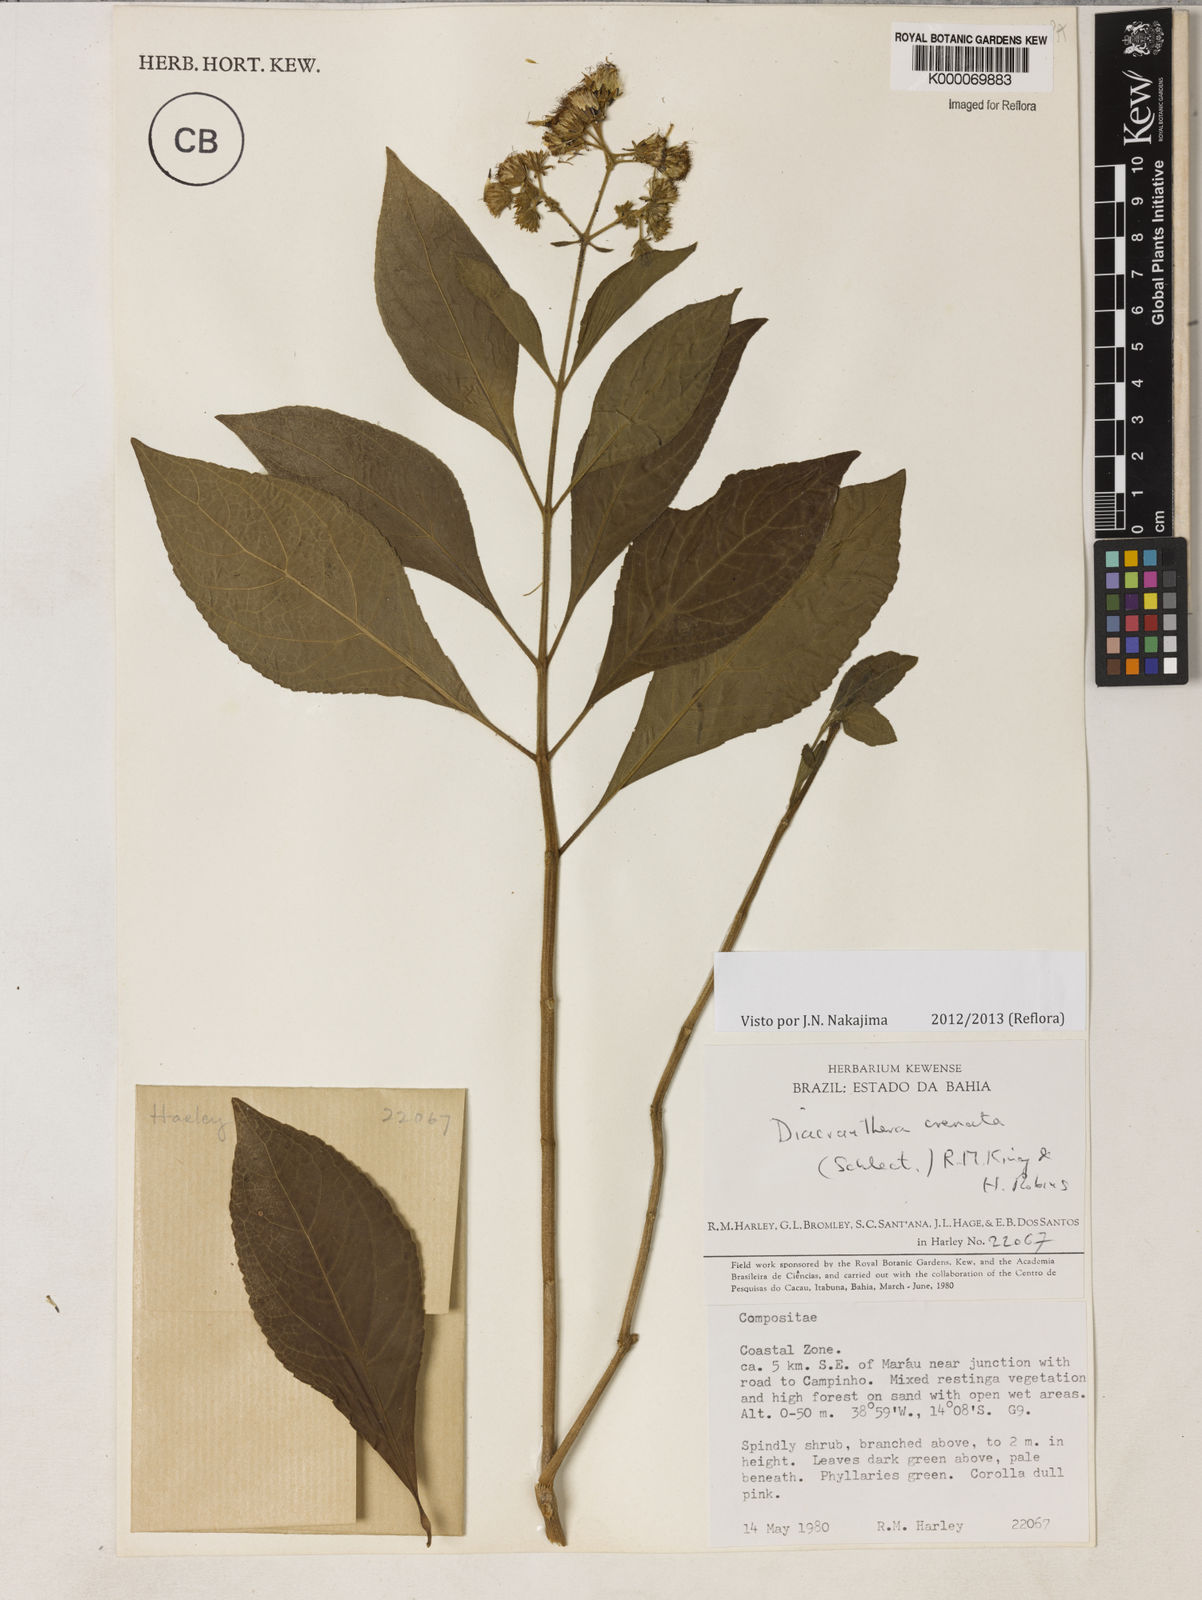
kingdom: Plantae
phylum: Tracheophyta
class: Magnoliopsida
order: Asterales
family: Asteraceae
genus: Diacranthera
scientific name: Diacranthera crenata
